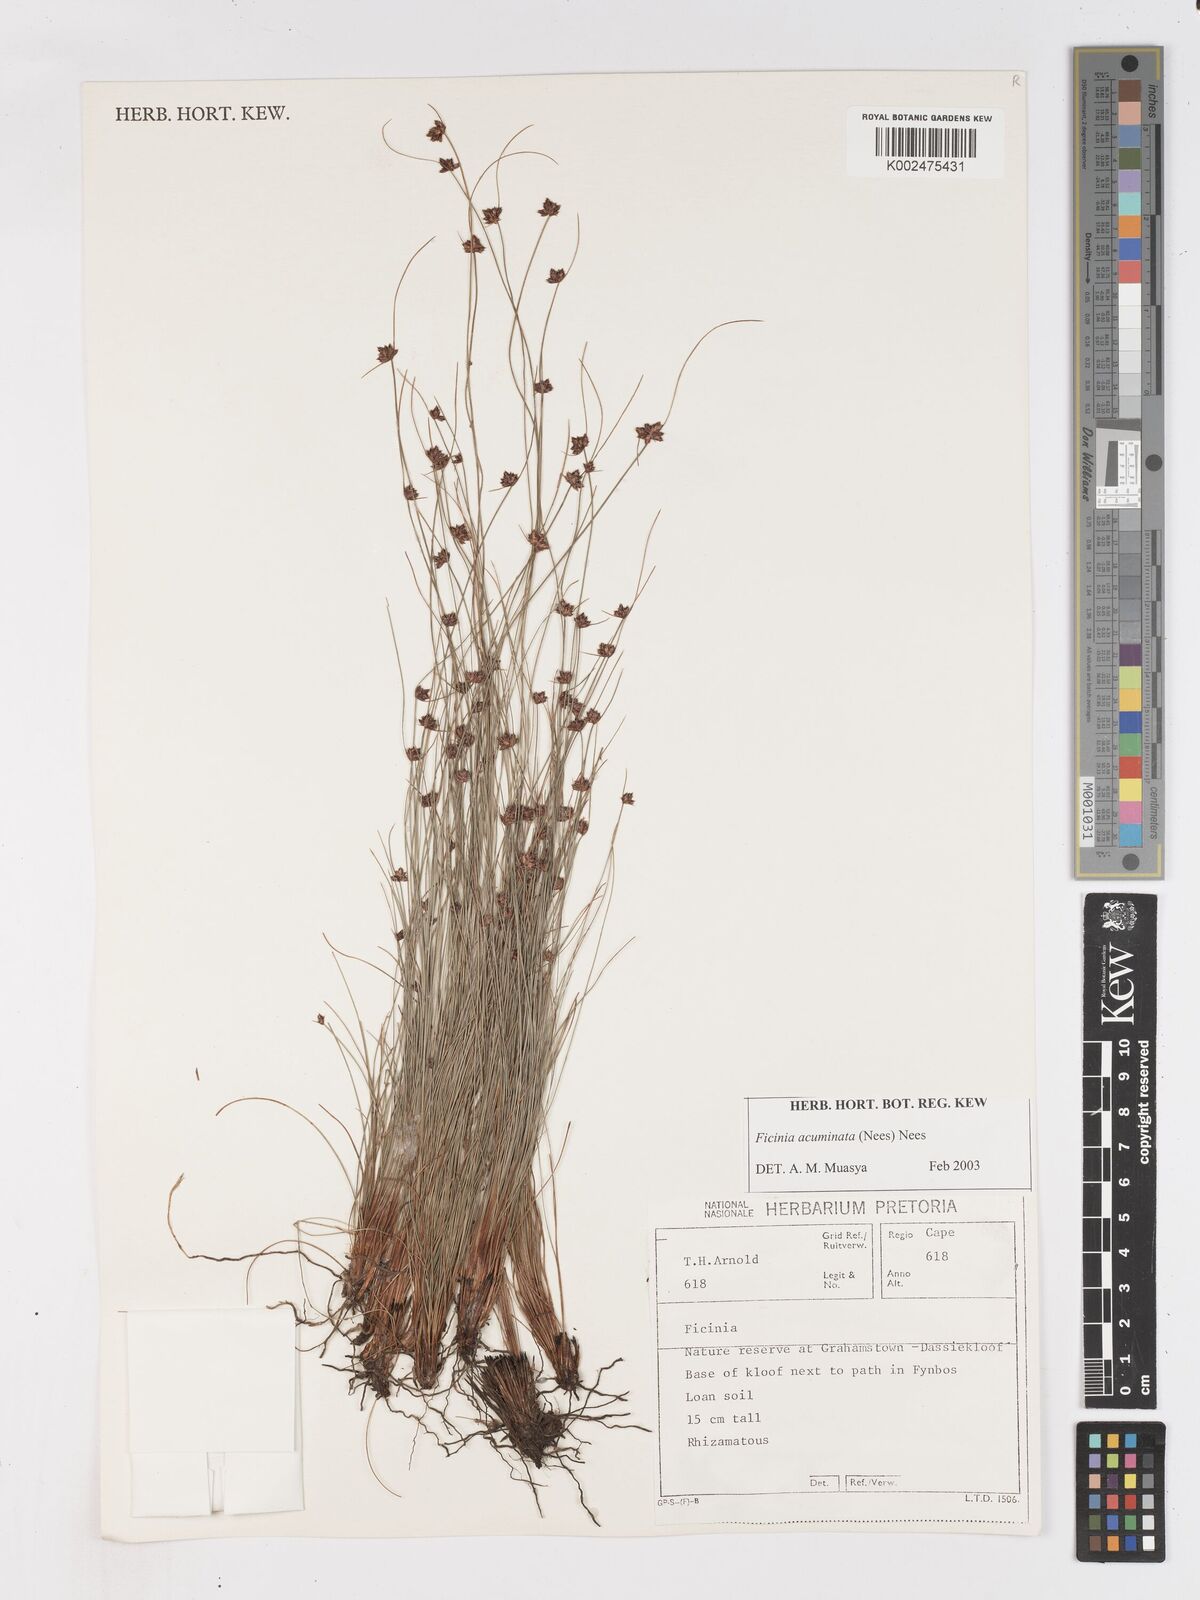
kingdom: Plantae
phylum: Tracheophyta
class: Liliopsida
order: Poales
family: Cyperaceae
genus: Ficinia
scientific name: Ficinia acuminata
